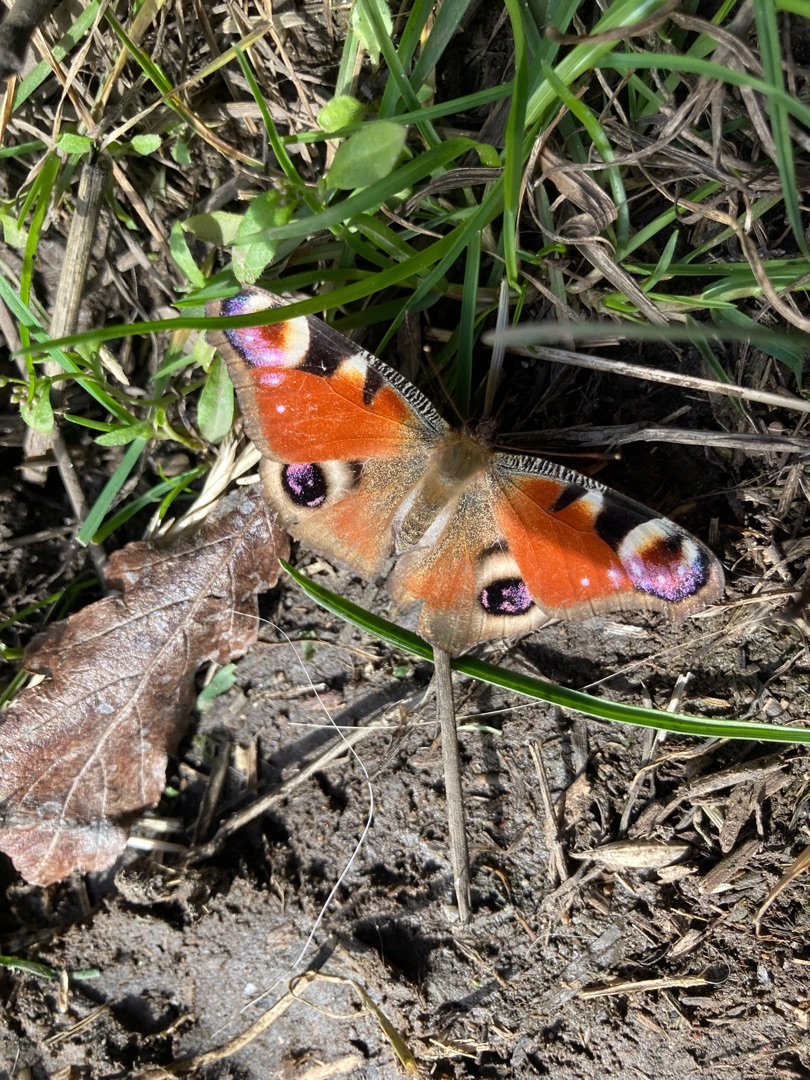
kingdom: Animalia
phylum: Arthropoda
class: Insecta
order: Lepidoptera
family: Nymphalidae
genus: Aglais
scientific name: Aglais io
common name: Dagpåfugleøje
